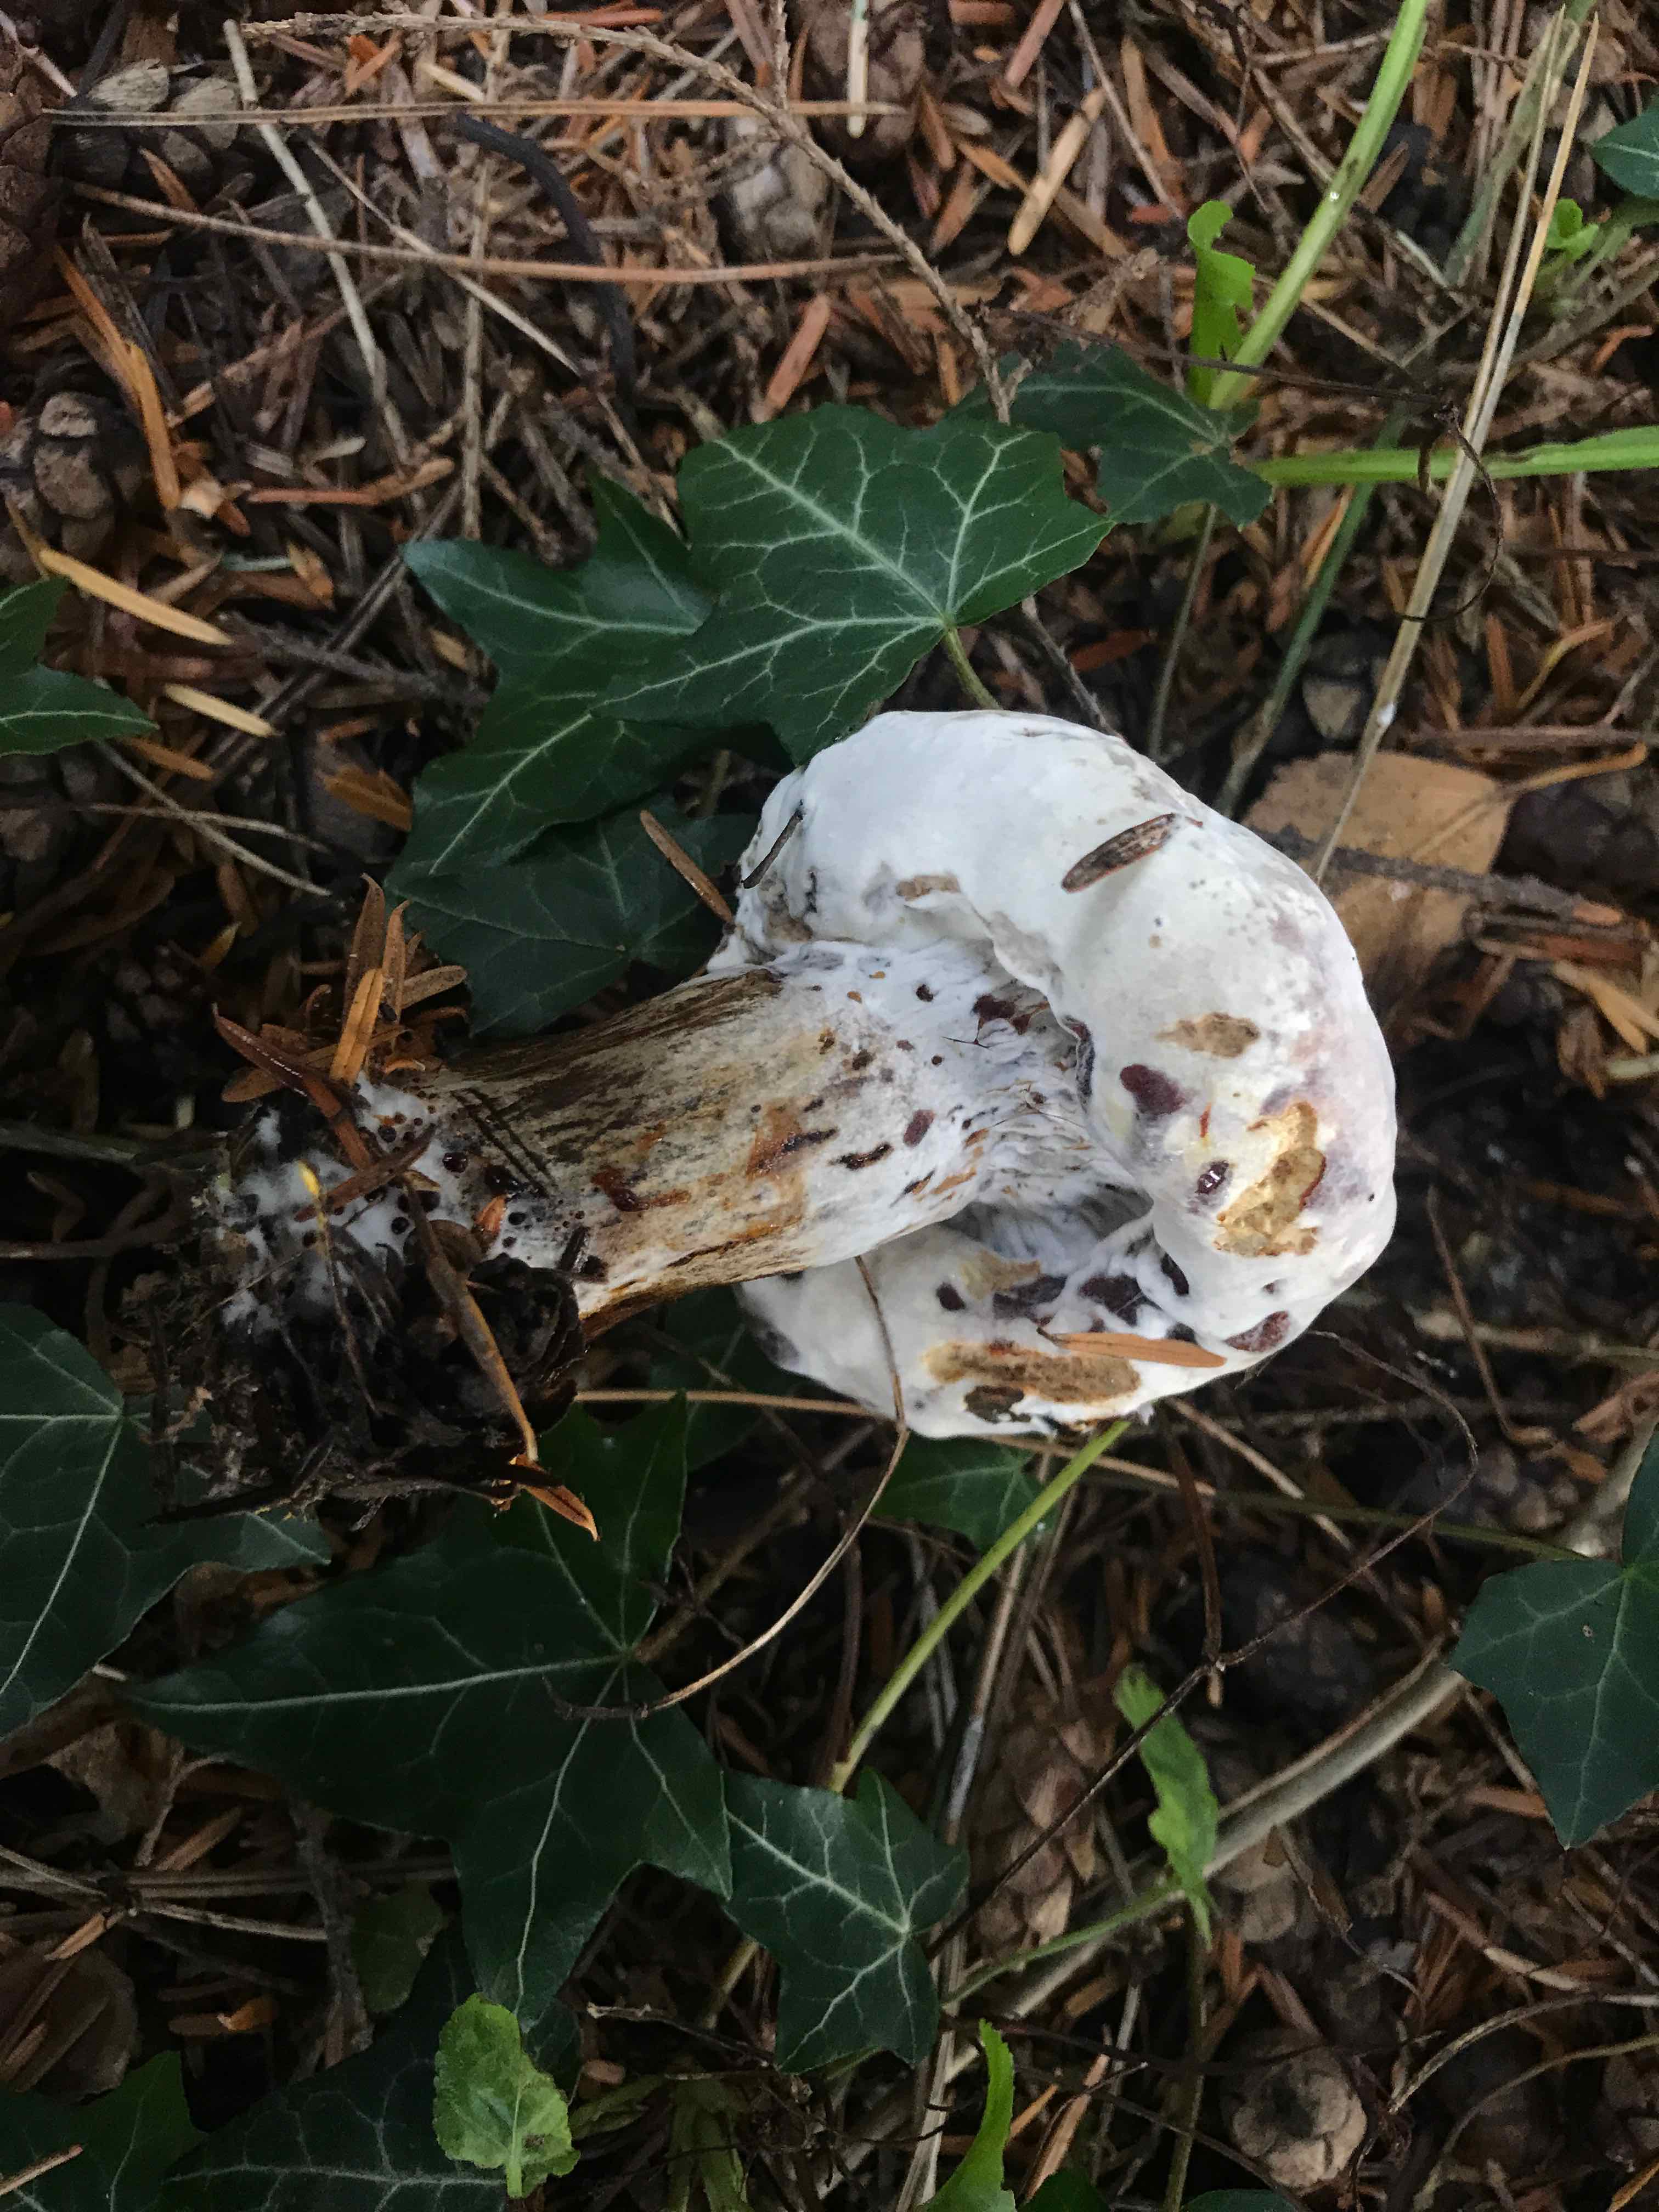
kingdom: Fungi
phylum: Ascomycota
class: Sordariomycetes
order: Hypocreales
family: Hypocreaceae
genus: Hypomyces
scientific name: Hypomyces
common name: snylteskorpe
